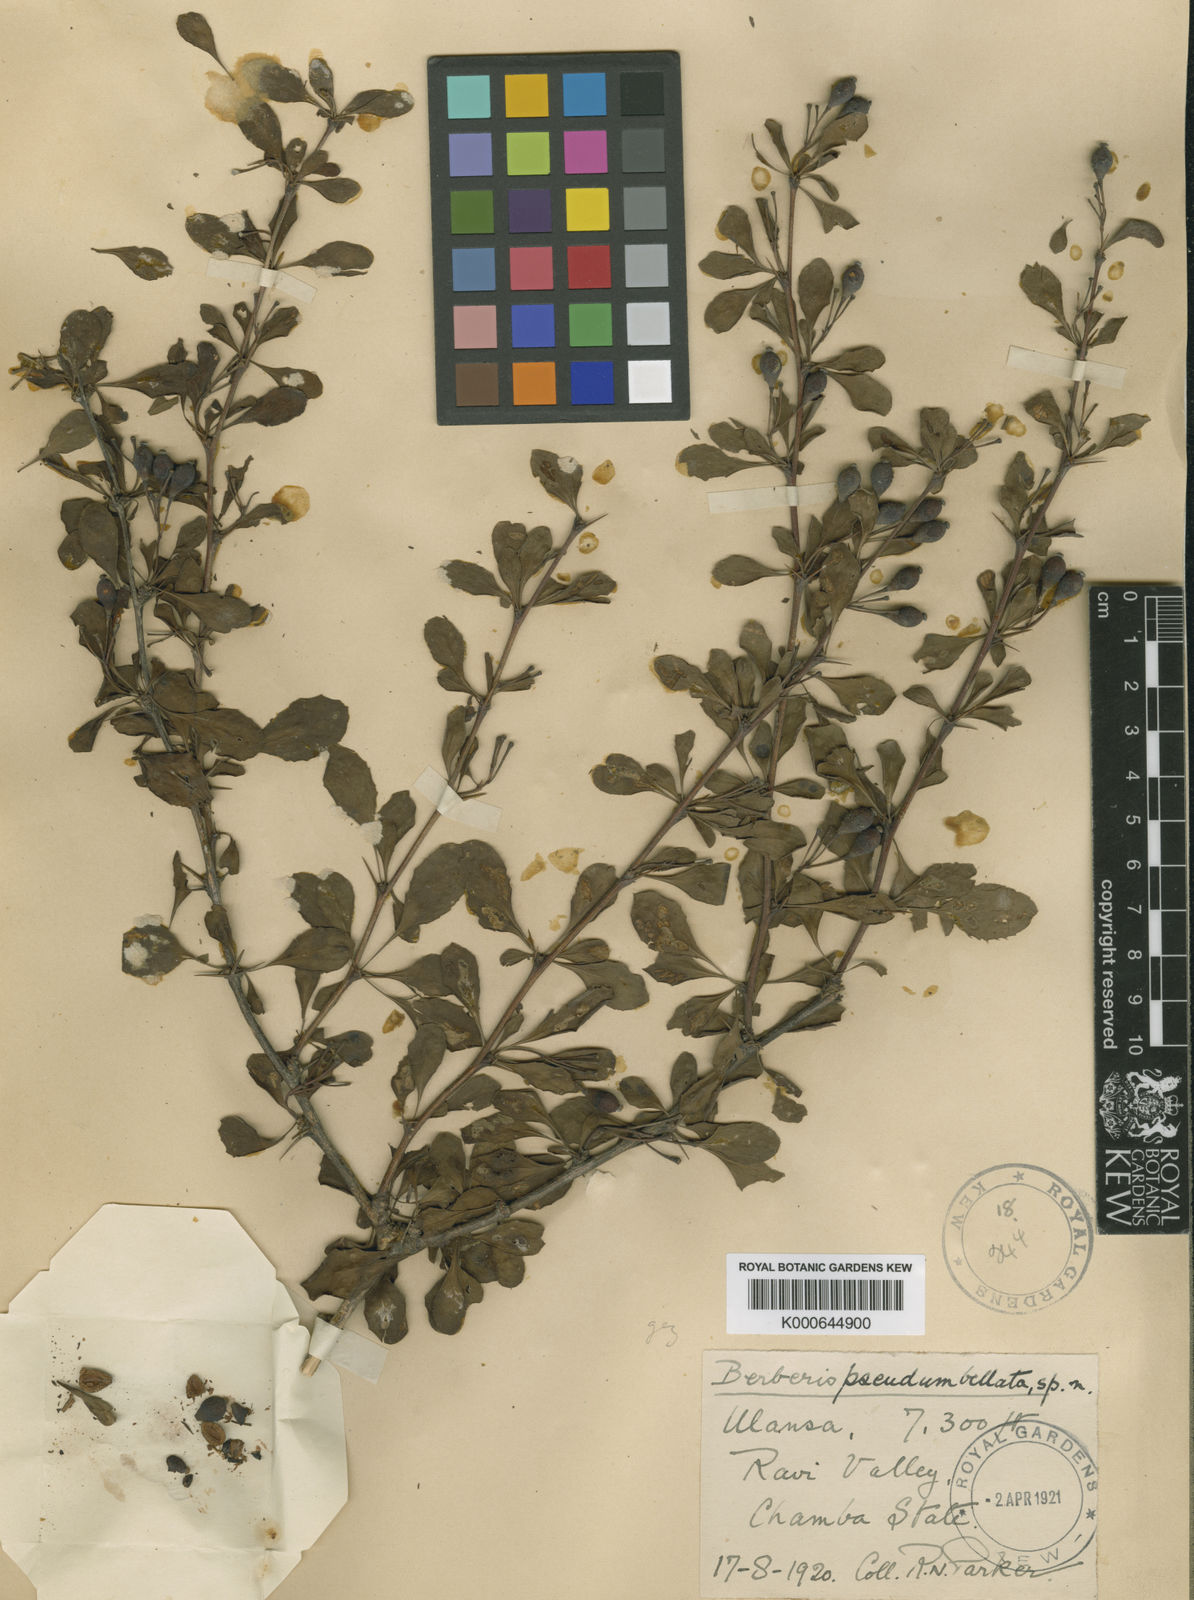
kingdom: Plantae
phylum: Tracheophyta
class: Magnoliopsida
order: Ranunculales
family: Berberidaceae
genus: Berberis
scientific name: Berberis pseudumbellata
